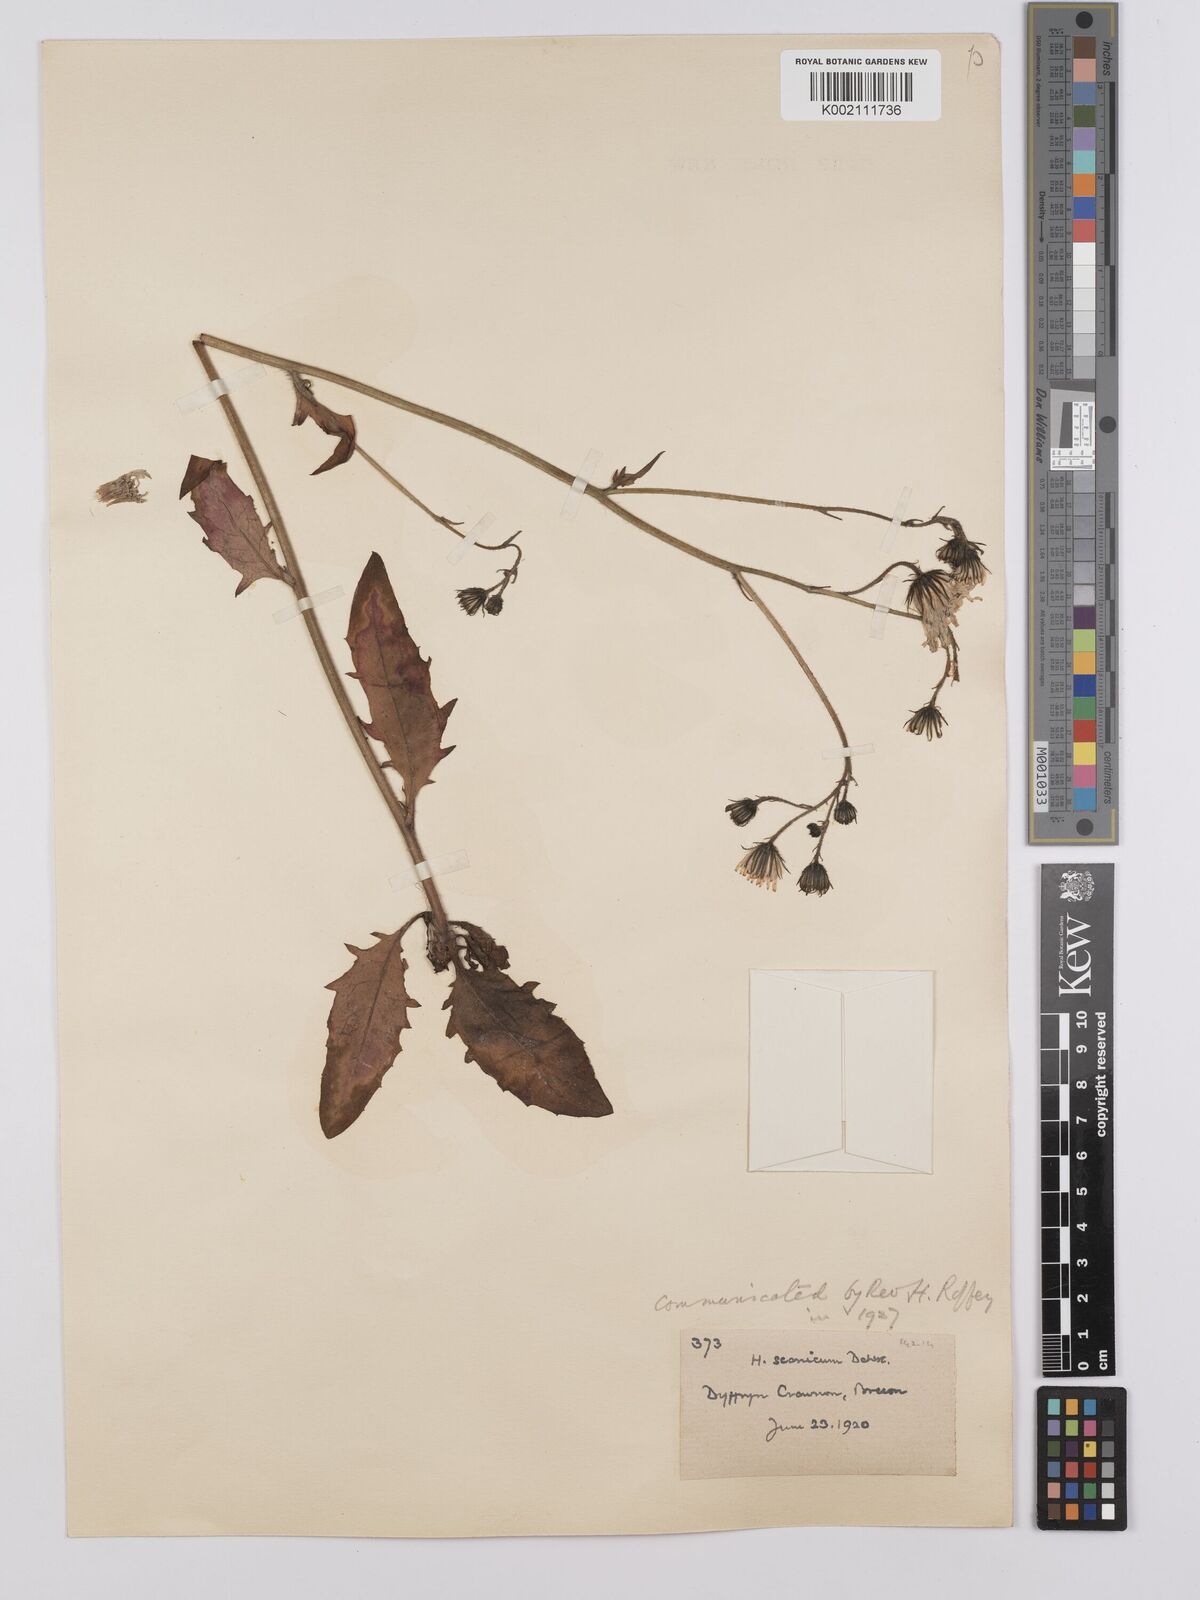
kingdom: Plantae
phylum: Tracheophyta
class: Magnoliopsida
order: Asterales
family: Asteraceae
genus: Hieracium
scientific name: Hieracium anglorum
